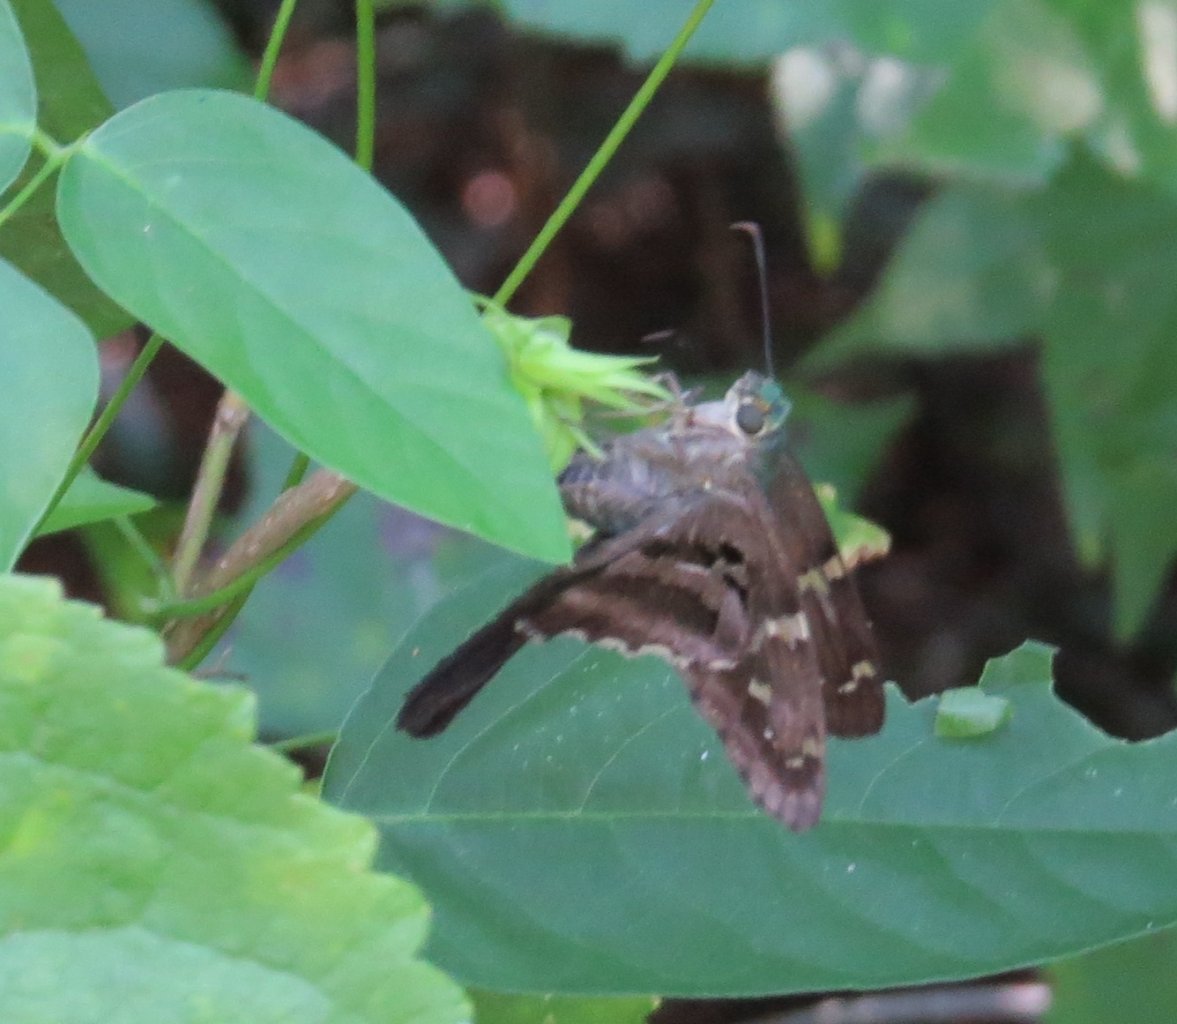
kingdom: Animalia
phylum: Arthropoda
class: Insecta
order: Lepidoptera
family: Hesperiidae
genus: Urbanus
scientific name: Urbanus proteus
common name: Long-tailed Skipper
